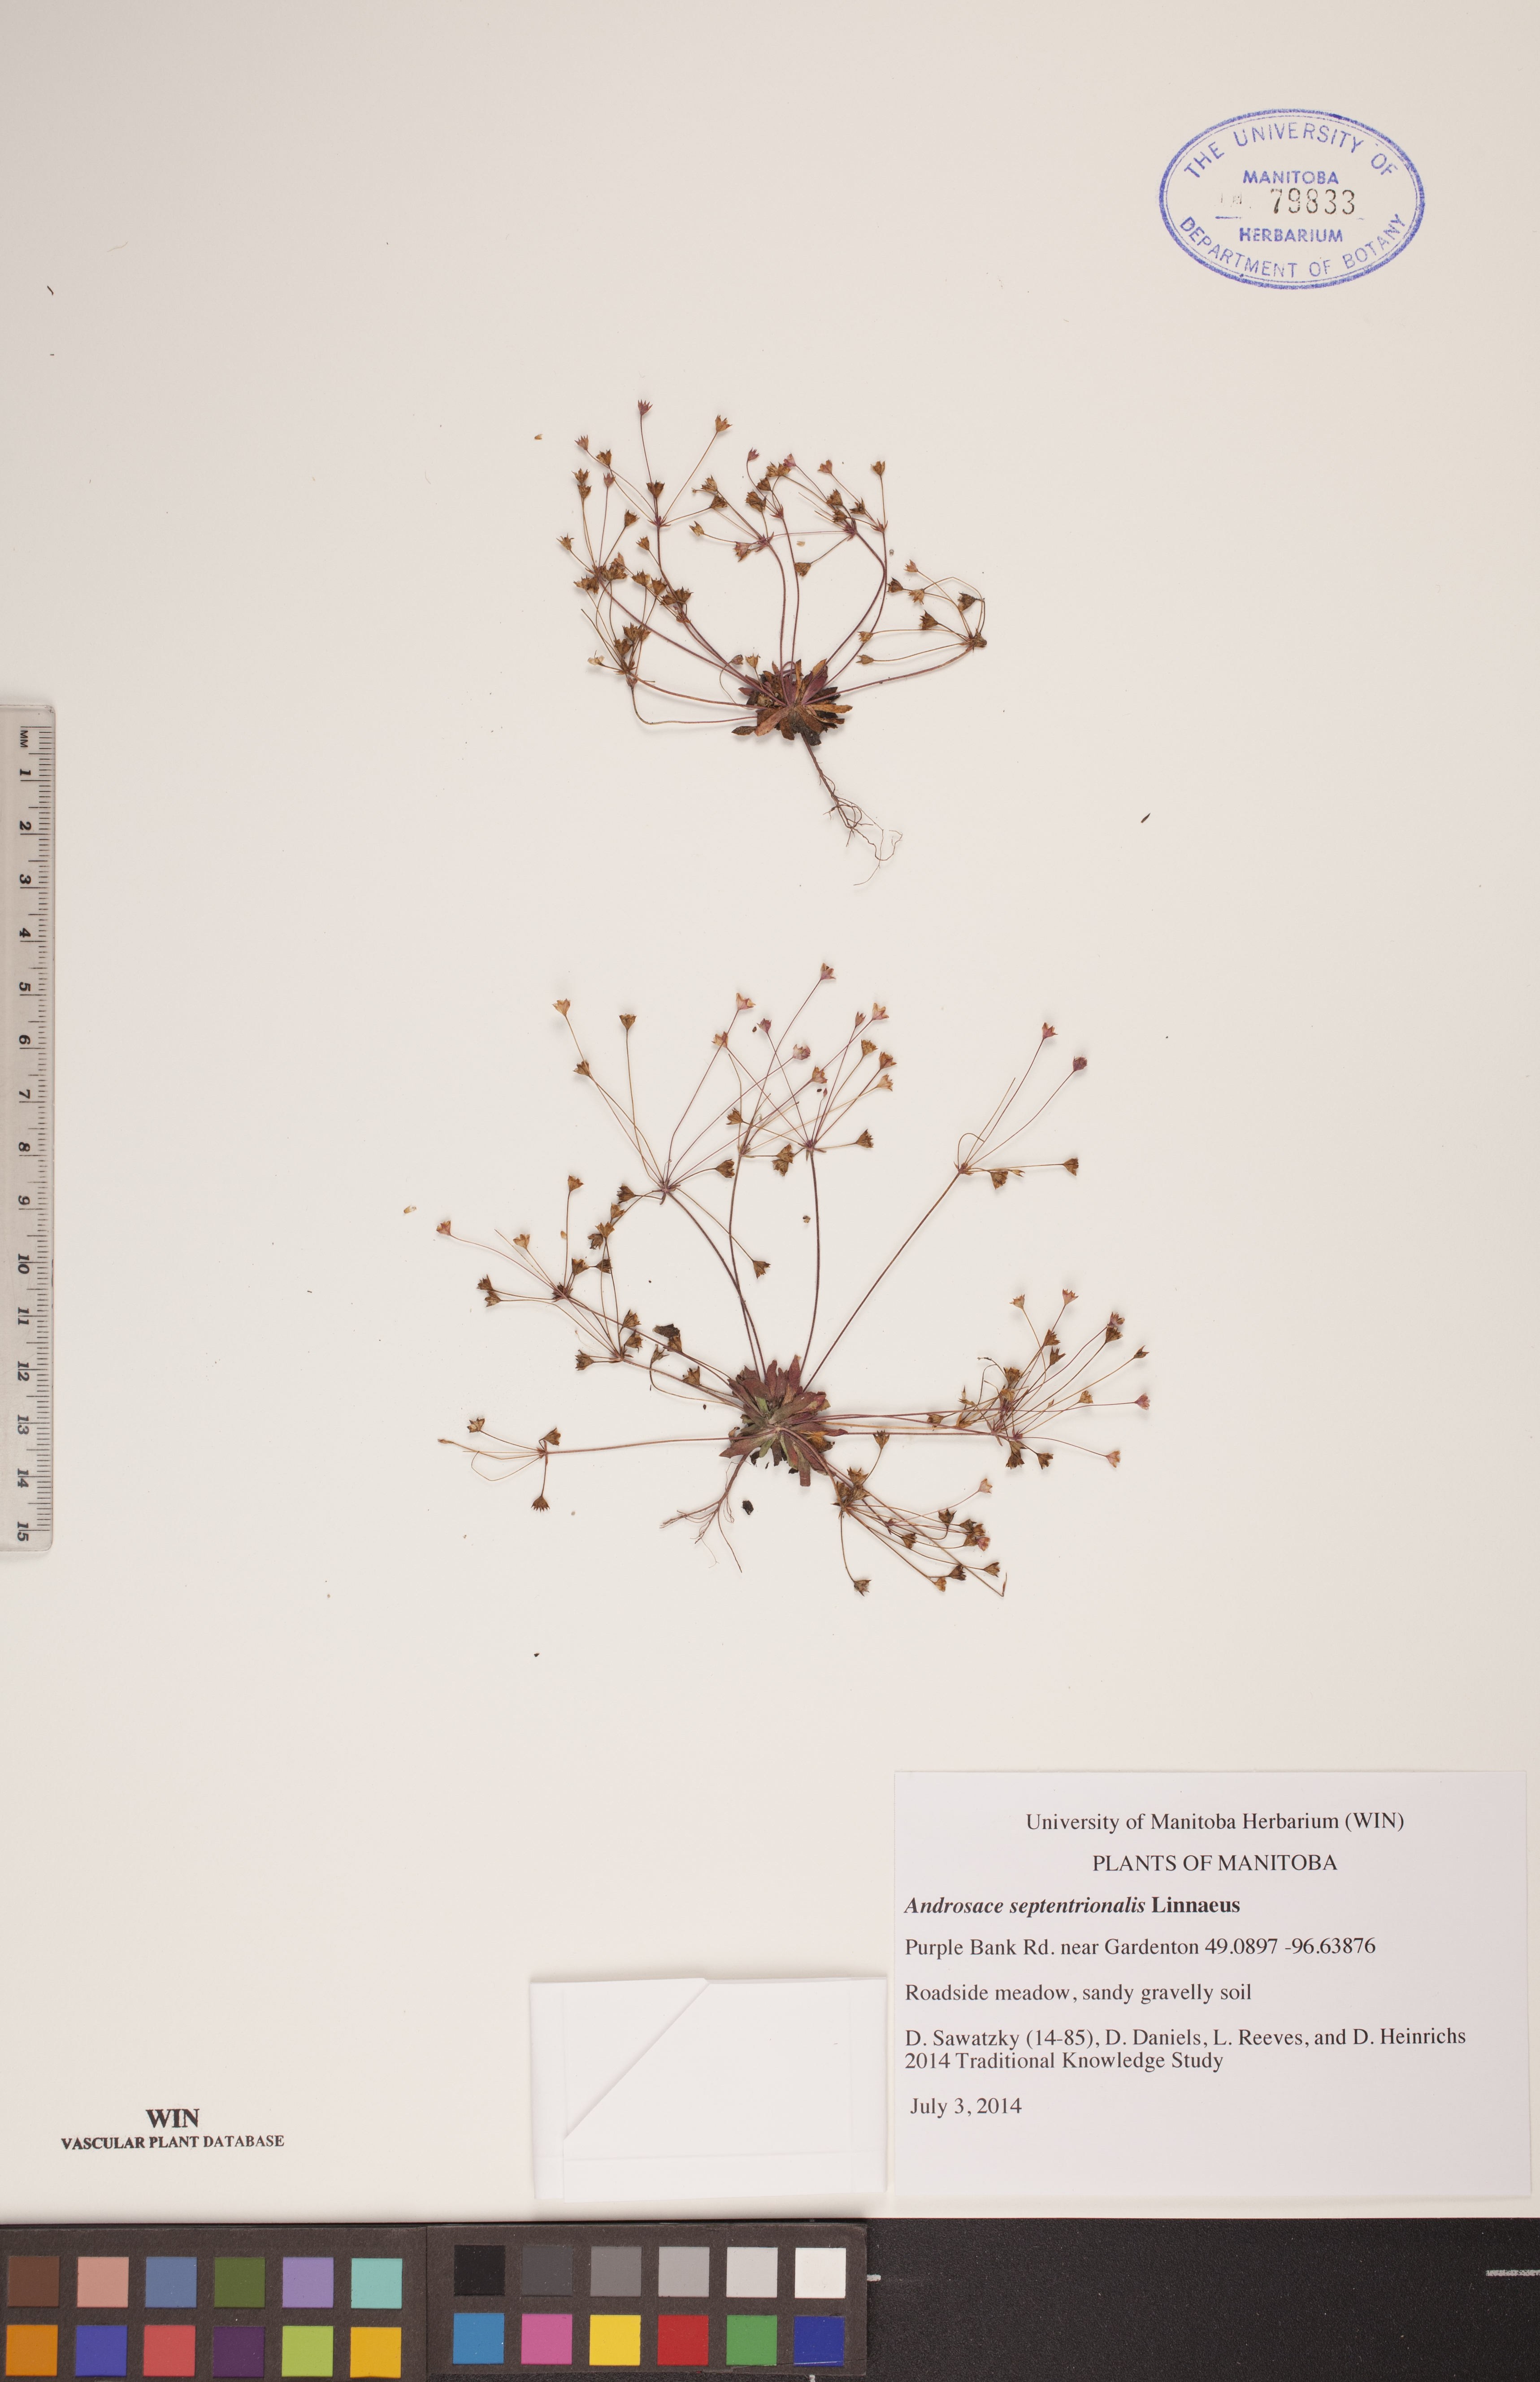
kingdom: Plantae
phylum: Tracheophyta
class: Magnoliopsida
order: Ericales
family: Primulaceae
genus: Androsace
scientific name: Androsace septentrionalis
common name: Hairy northern fairy-candelabra
